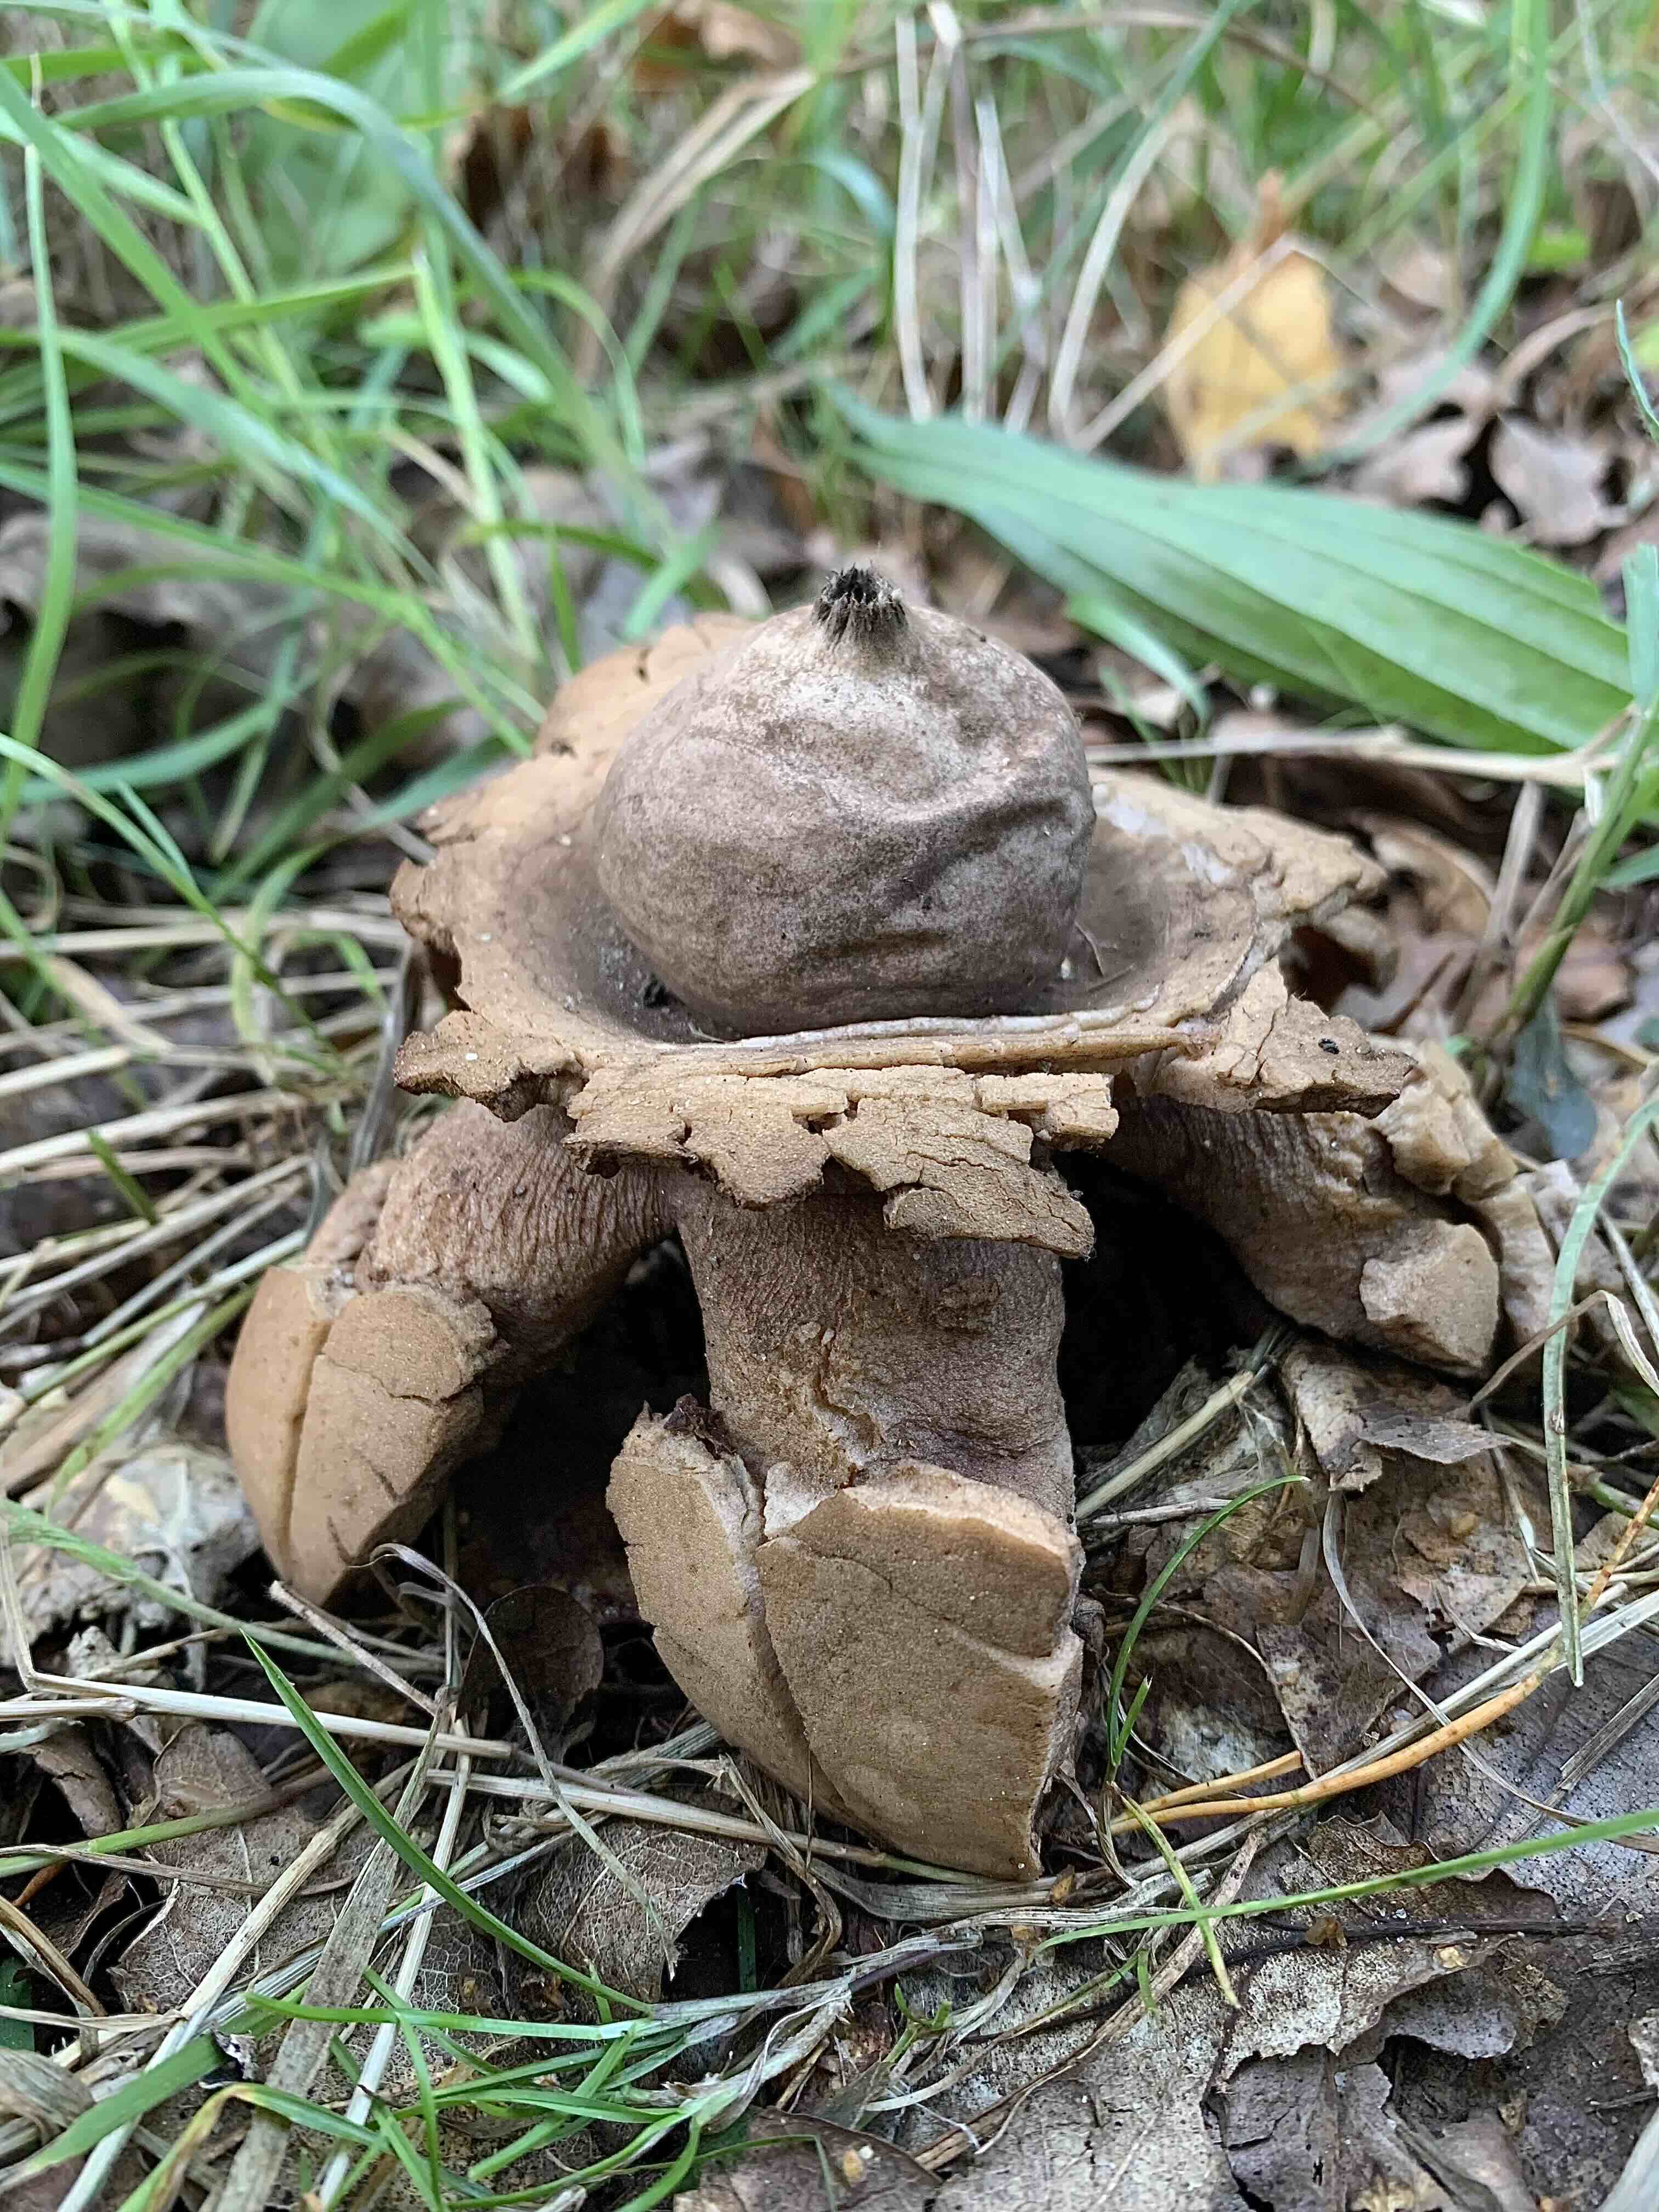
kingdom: Fungi
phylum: Basidiomycota
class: Agaricomycetes
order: Geastrales
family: Geastraceae
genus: Geastrum
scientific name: Geastrum michelianum
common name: kødet stjernebold
